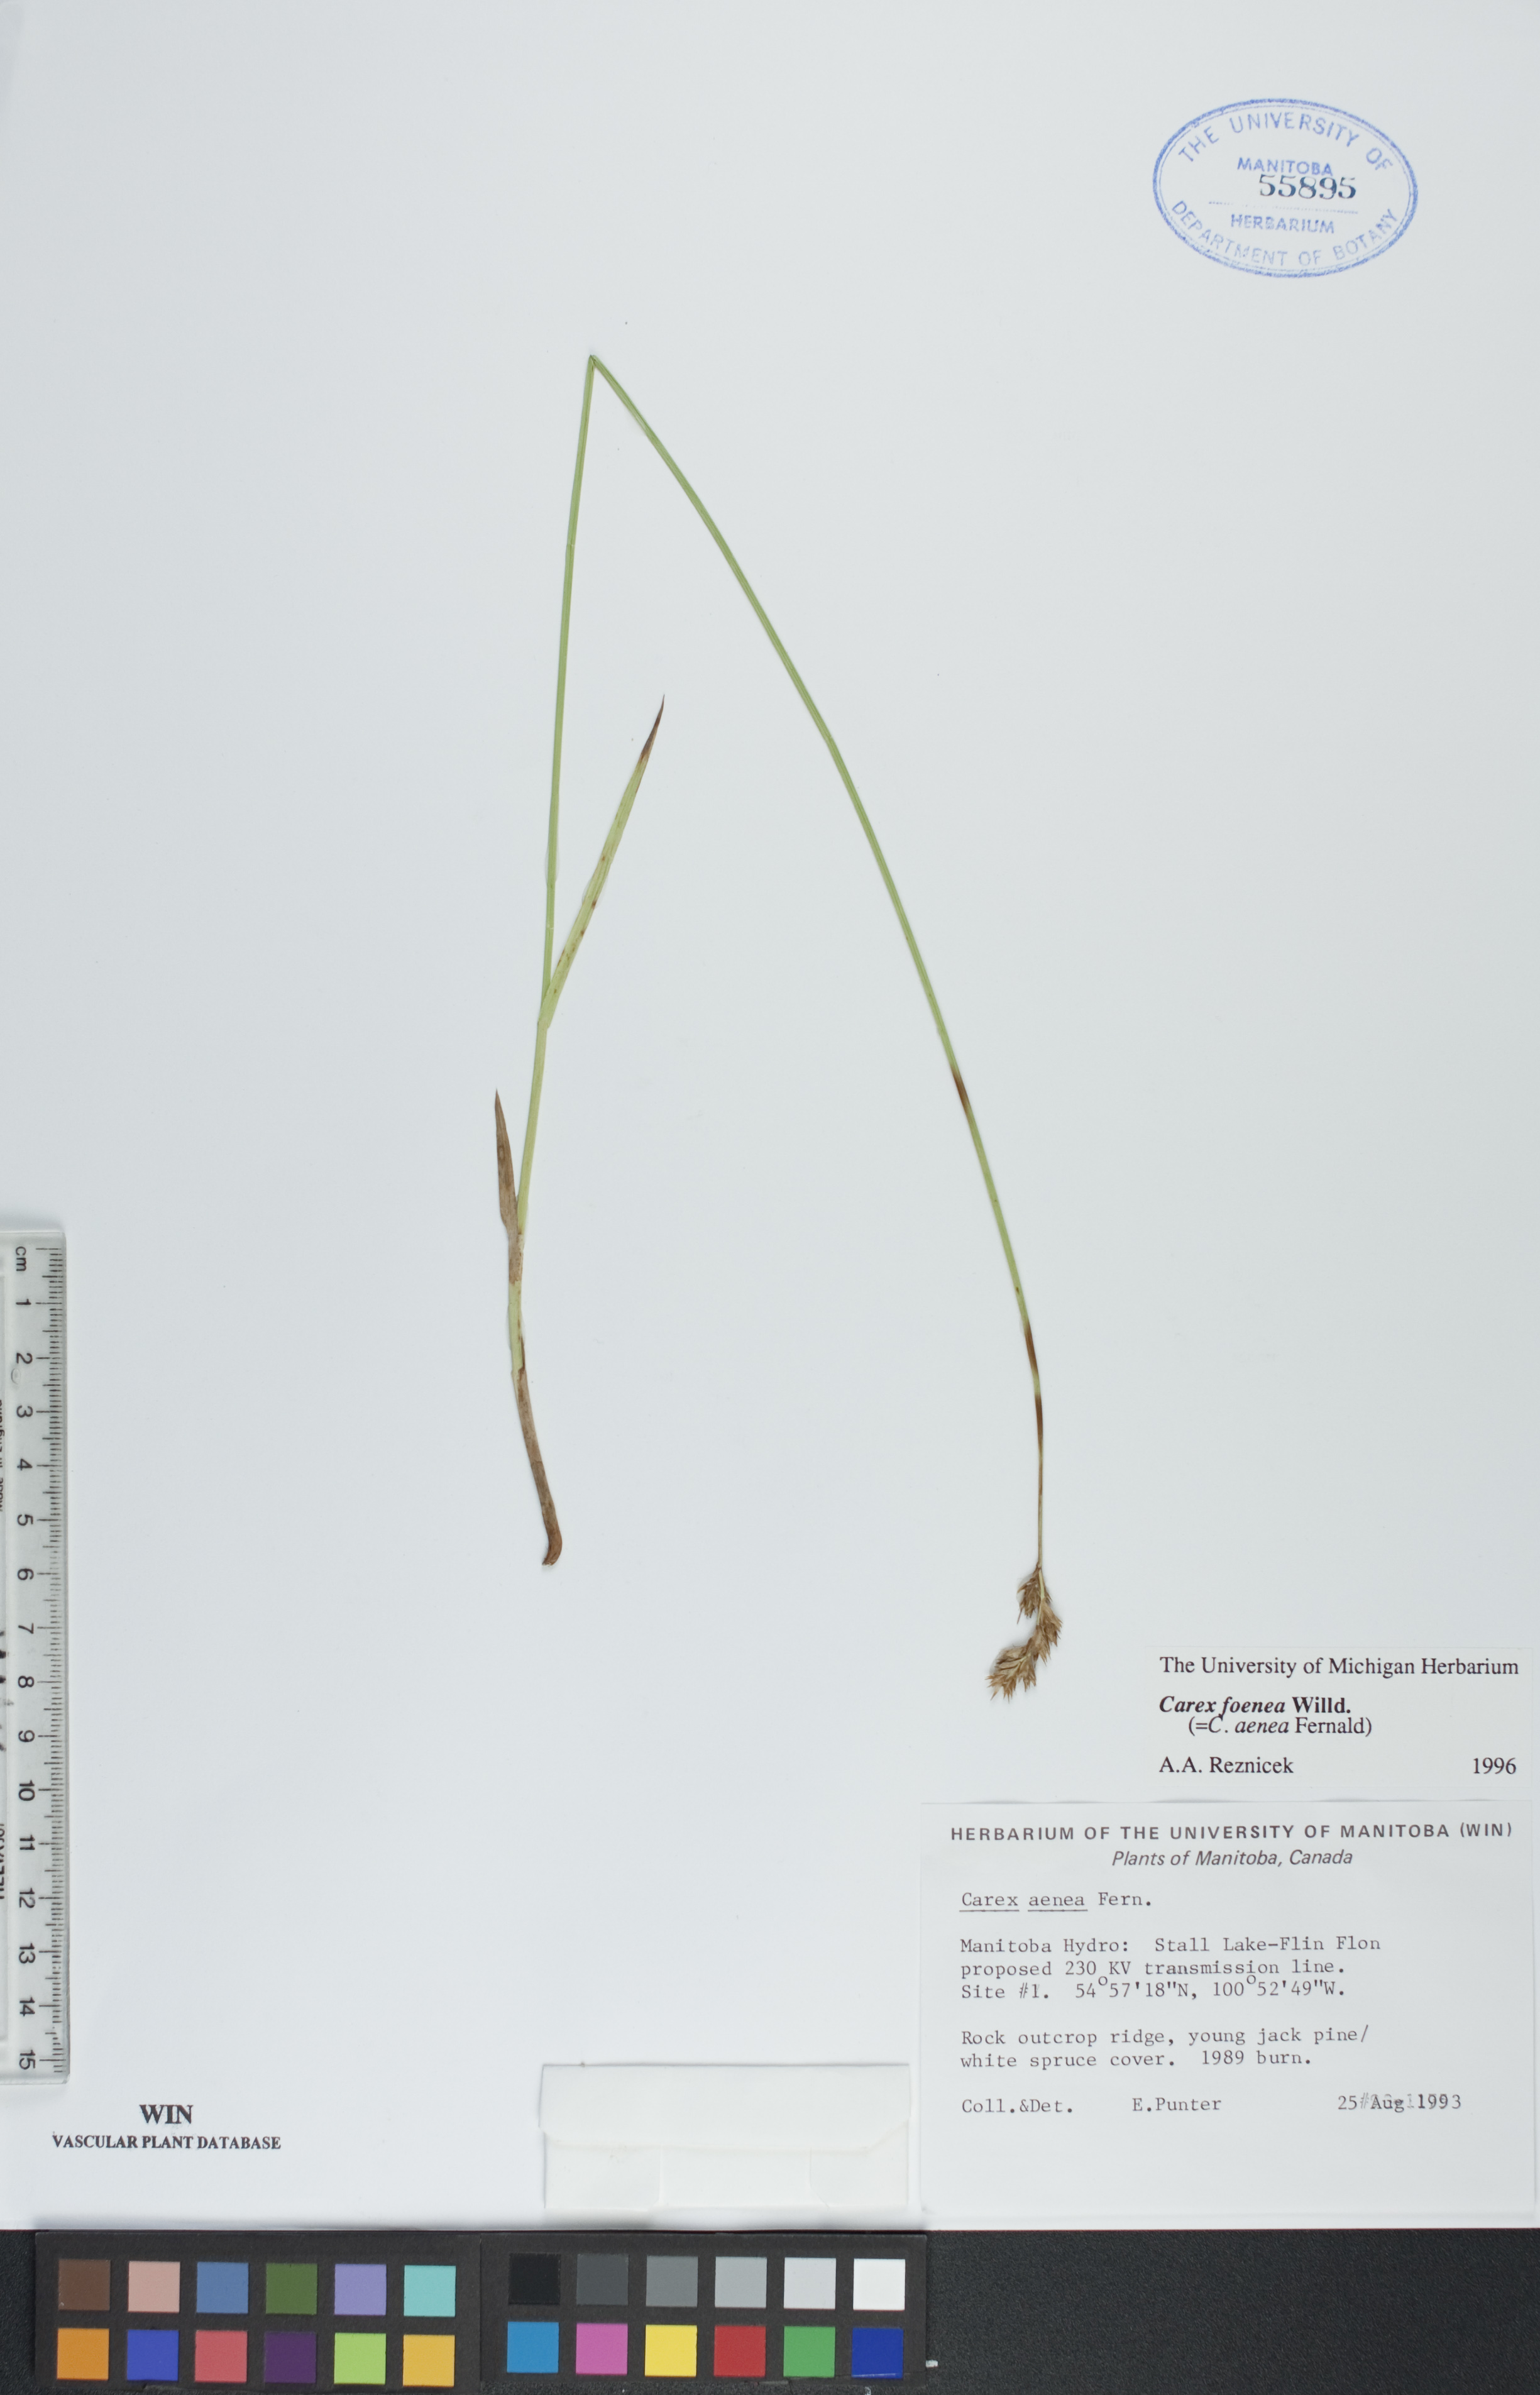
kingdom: Plantae
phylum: Tracheophyta
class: Liliopsida
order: Poales
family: Cyperaceae
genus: Carex
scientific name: Carex foenea
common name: Bronze sedge
